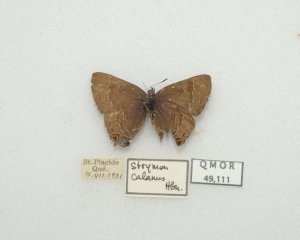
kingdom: Animalia
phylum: Arthropoda
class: Insecta
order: Lepidoptera
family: Lycaenidae
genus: Satyrium
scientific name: Satyrium calanus
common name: Banded Hairstreak
